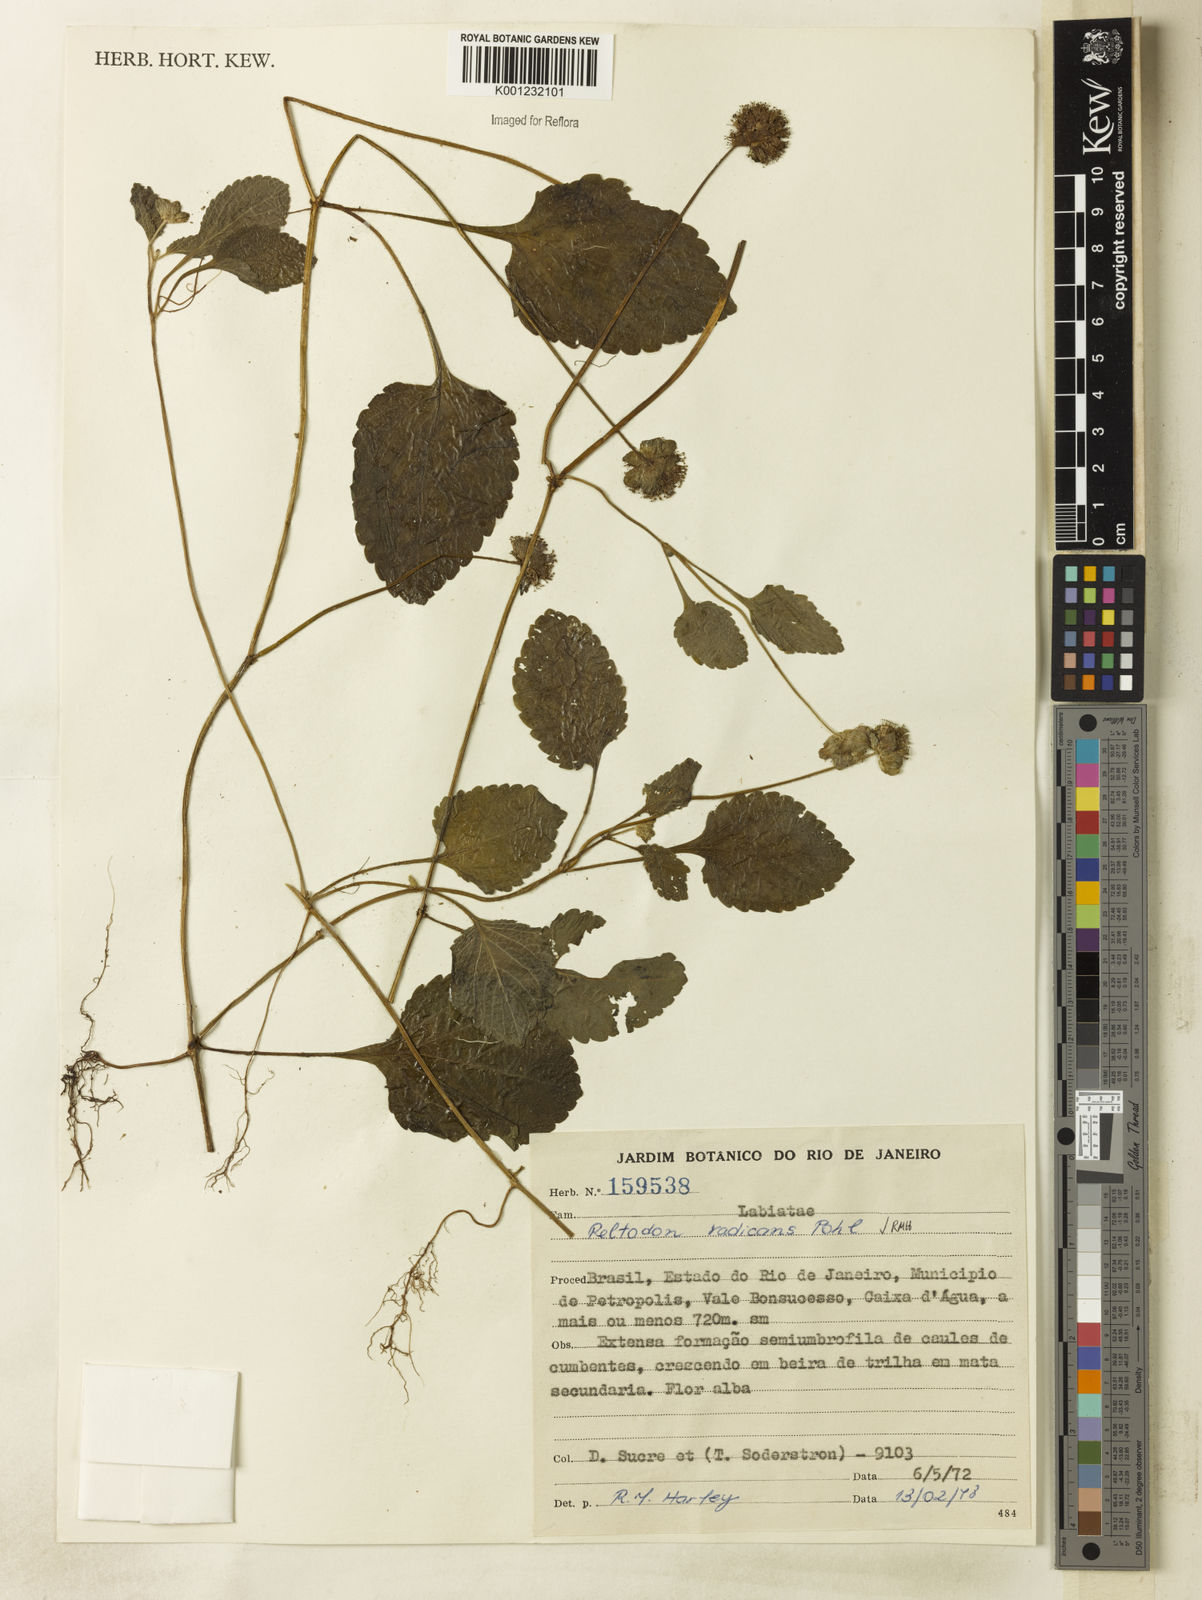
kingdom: Plantae
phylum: Tracheophyta
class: Magnoliopsida
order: Lamiales
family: Lamiaceae
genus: Hyptis
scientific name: Hyptis radicans
